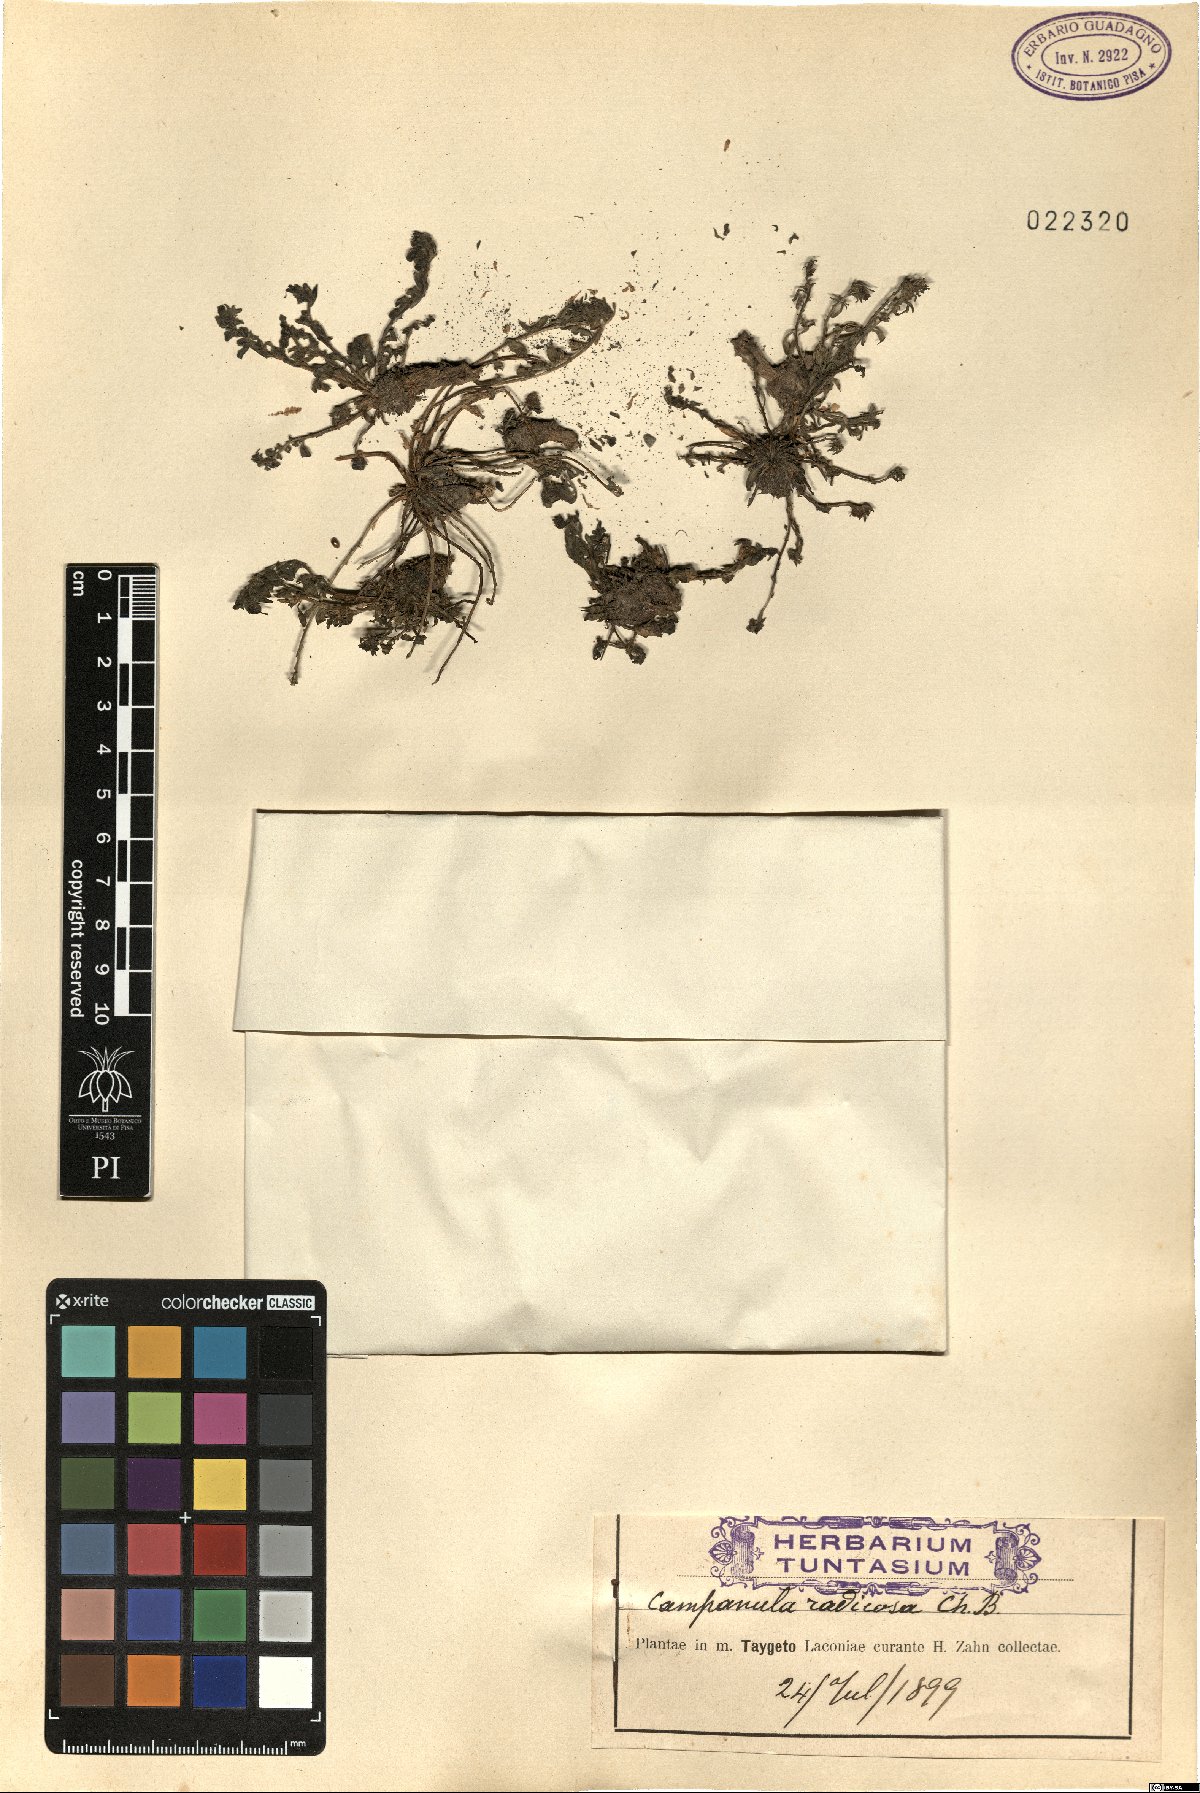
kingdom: Plantae
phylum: Tracheophyta
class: Magnoliopsida
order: Asterales
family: Campanulaceae
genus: Campanula
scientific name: Campanula radicosa
